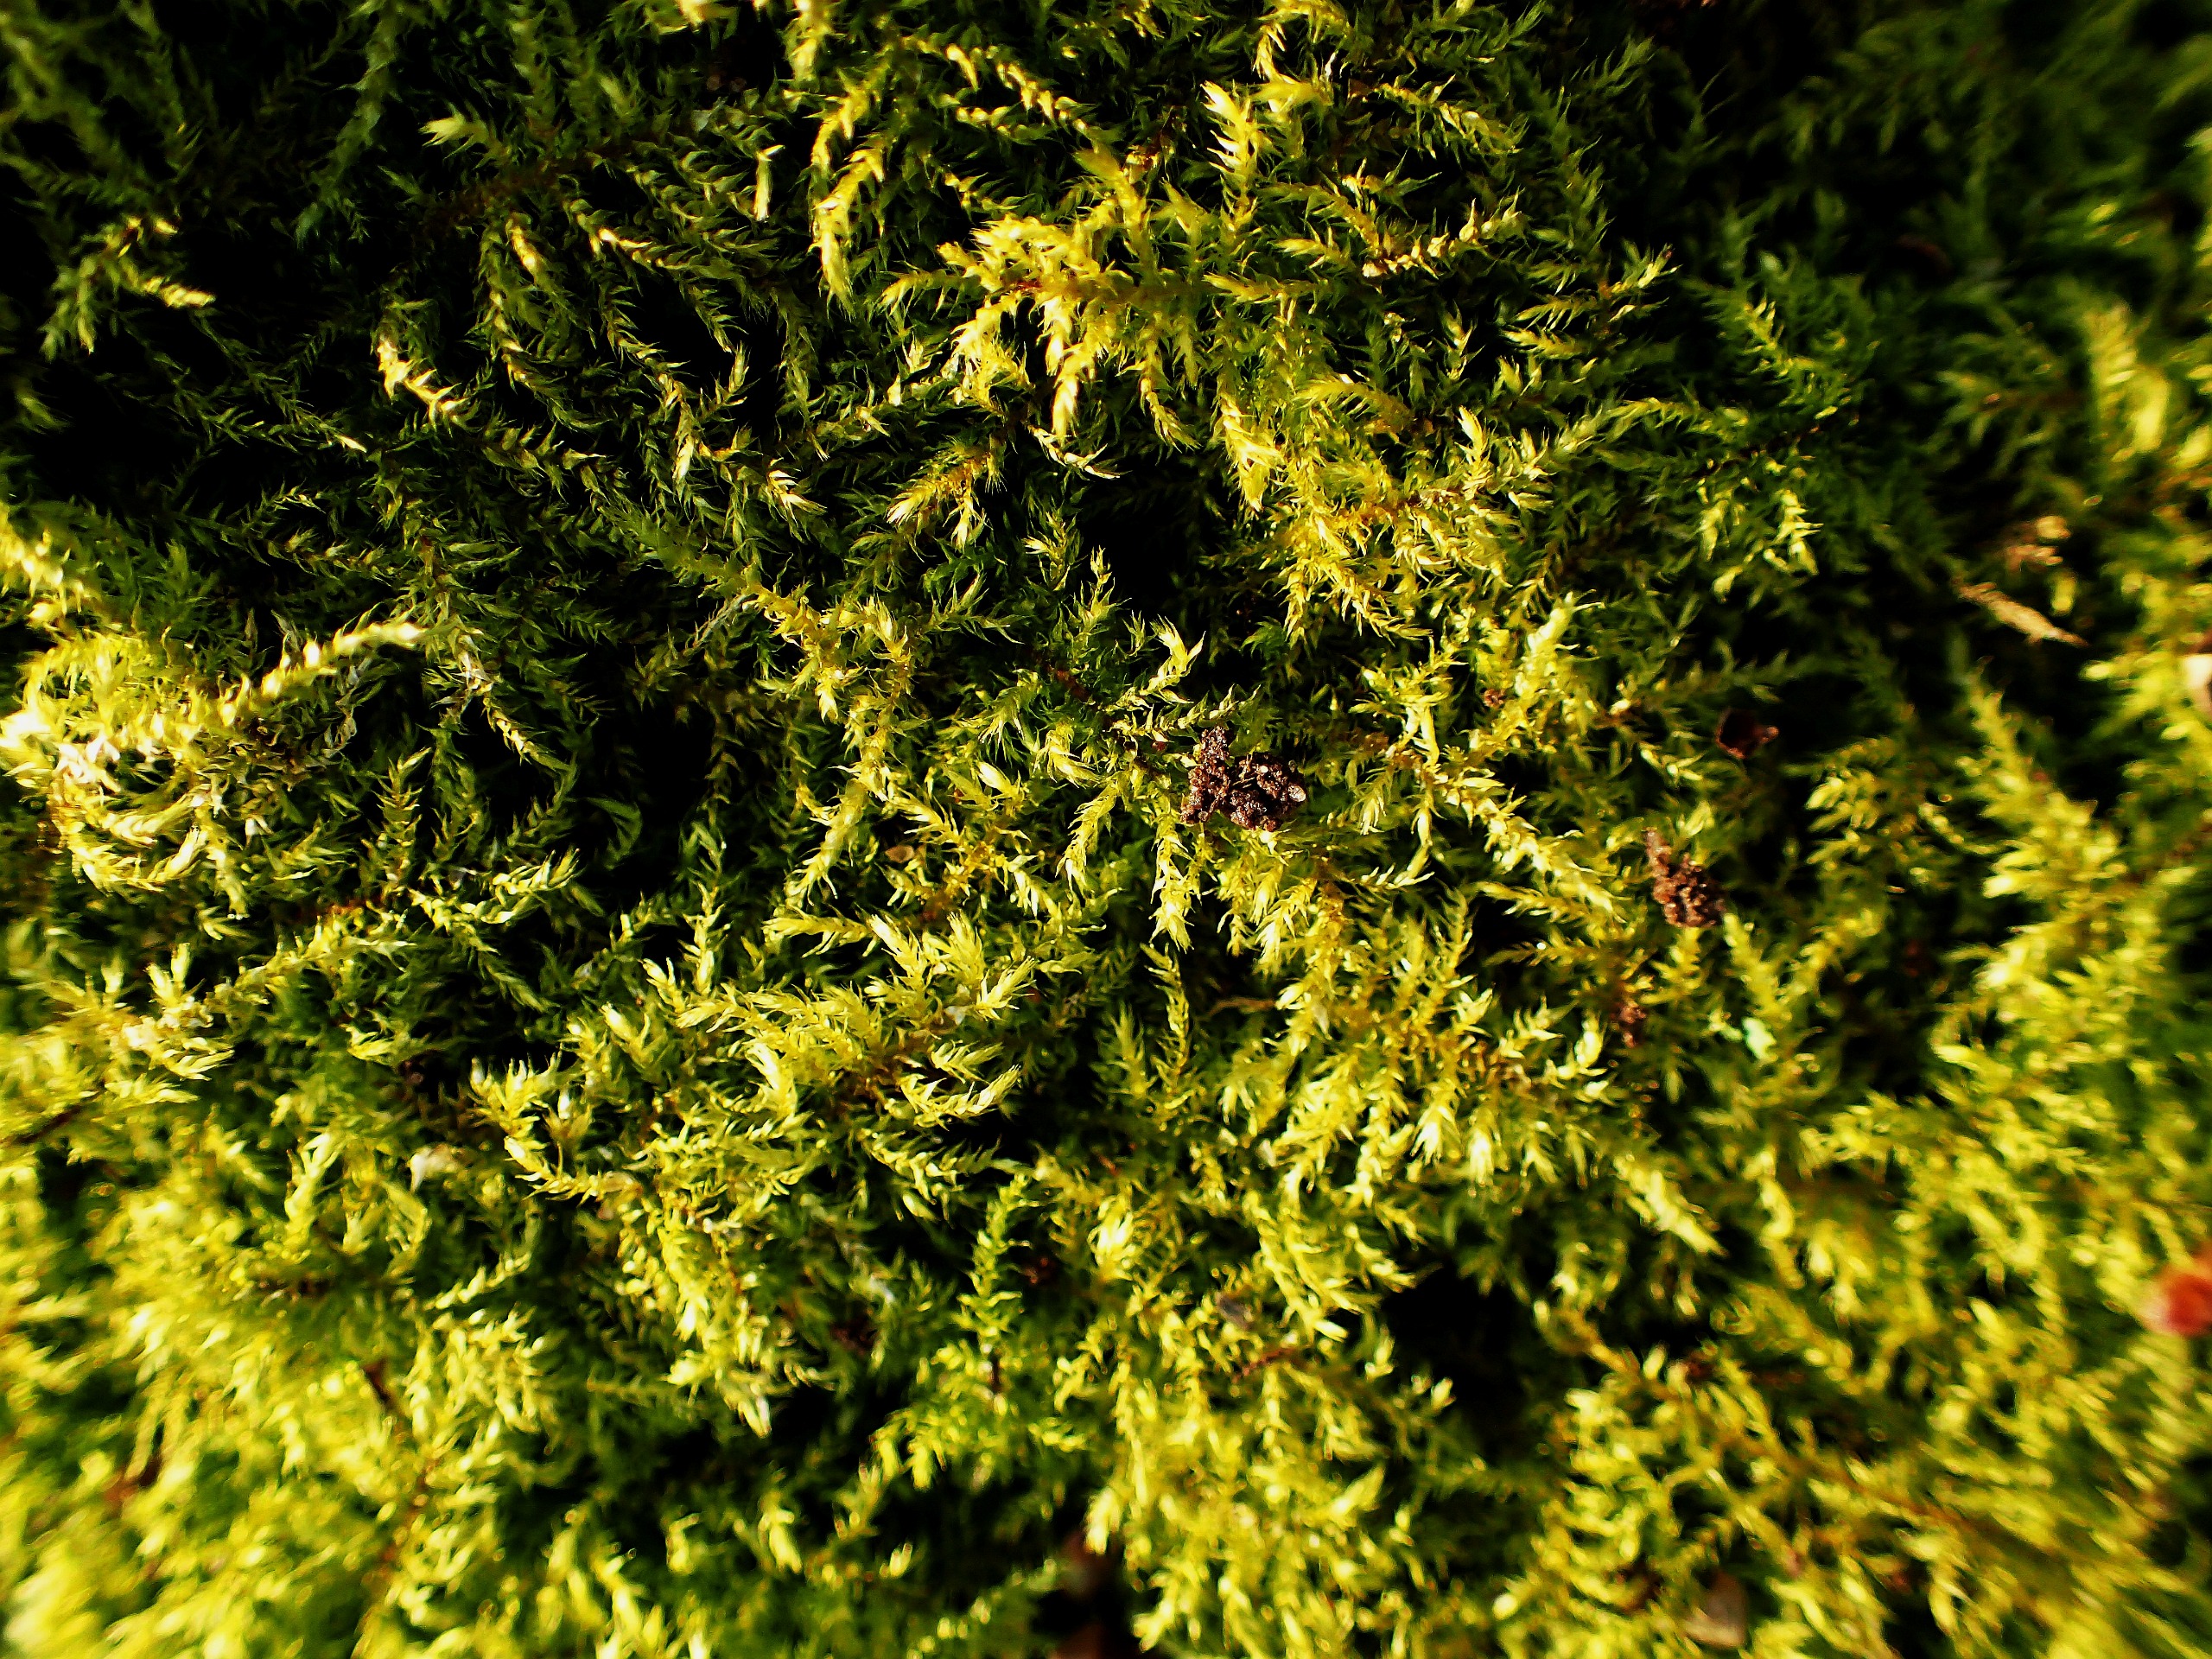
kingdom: Plantae
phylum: Bryophyta
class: Bryopsida
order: Hypnales
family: Brachytheciaceae
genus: Kindbergia
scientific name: Kindbergia praelonga
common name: Forskelligbladet vortetand
